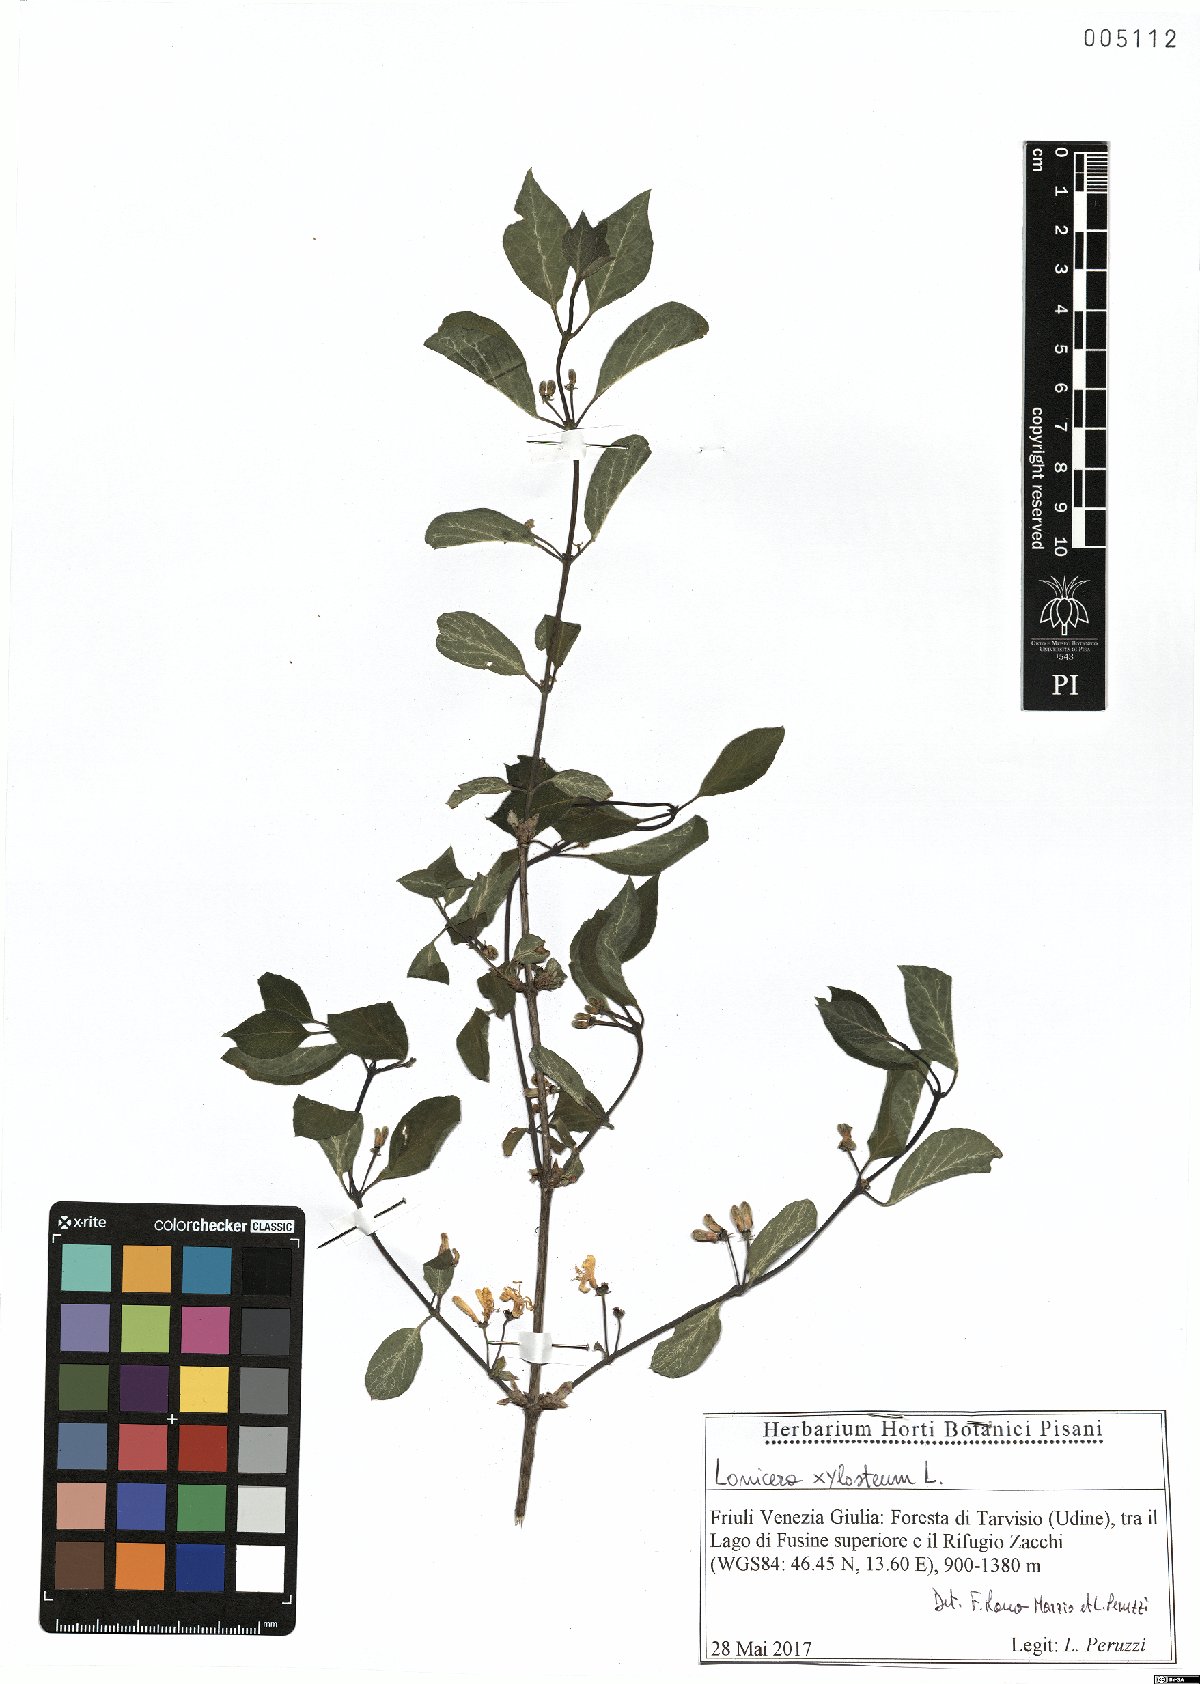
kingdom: Plantae
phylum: Tracheophyta
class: Magnoliopsida
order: Dipsacales
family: Caprifoliaceae
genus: Lonicera
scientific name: Lonicera xylosteum
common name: Fly honeysuckle
